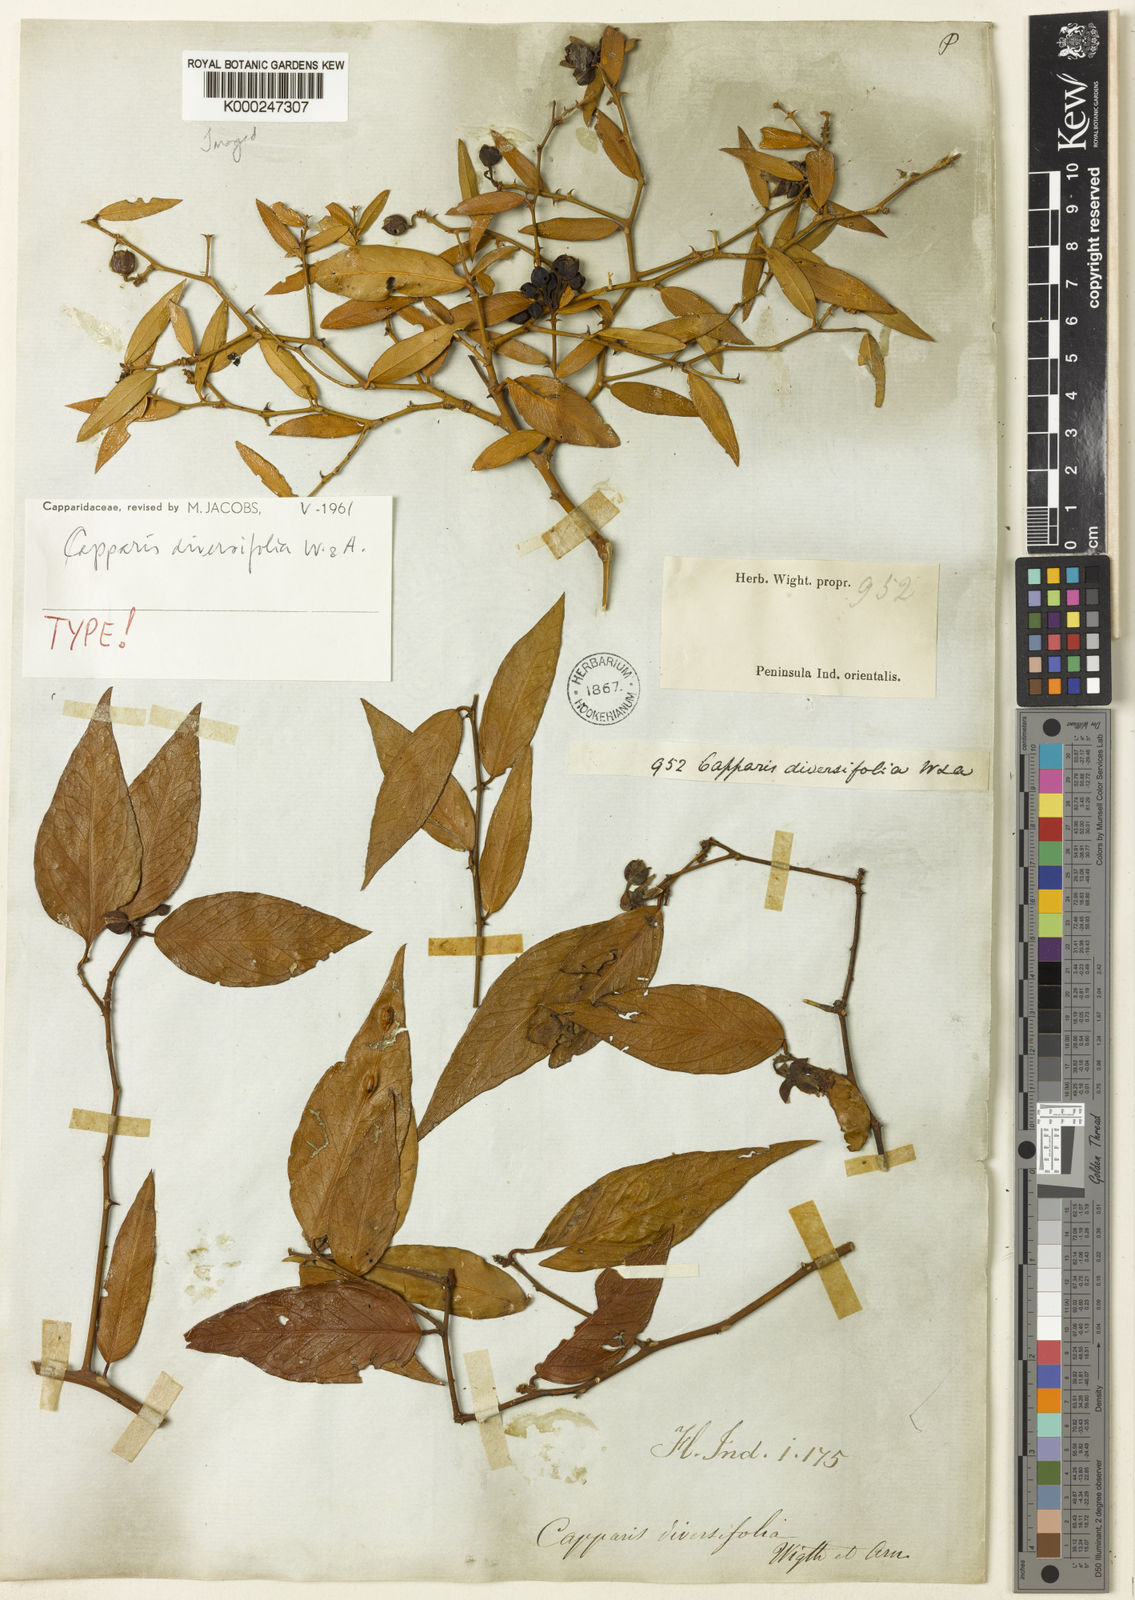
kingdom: Plantae
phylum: Tracheophyta
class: Magnoliopsida
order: Brassicales
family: Capparaceae
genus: Capparis
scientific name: Capparis flavicans
